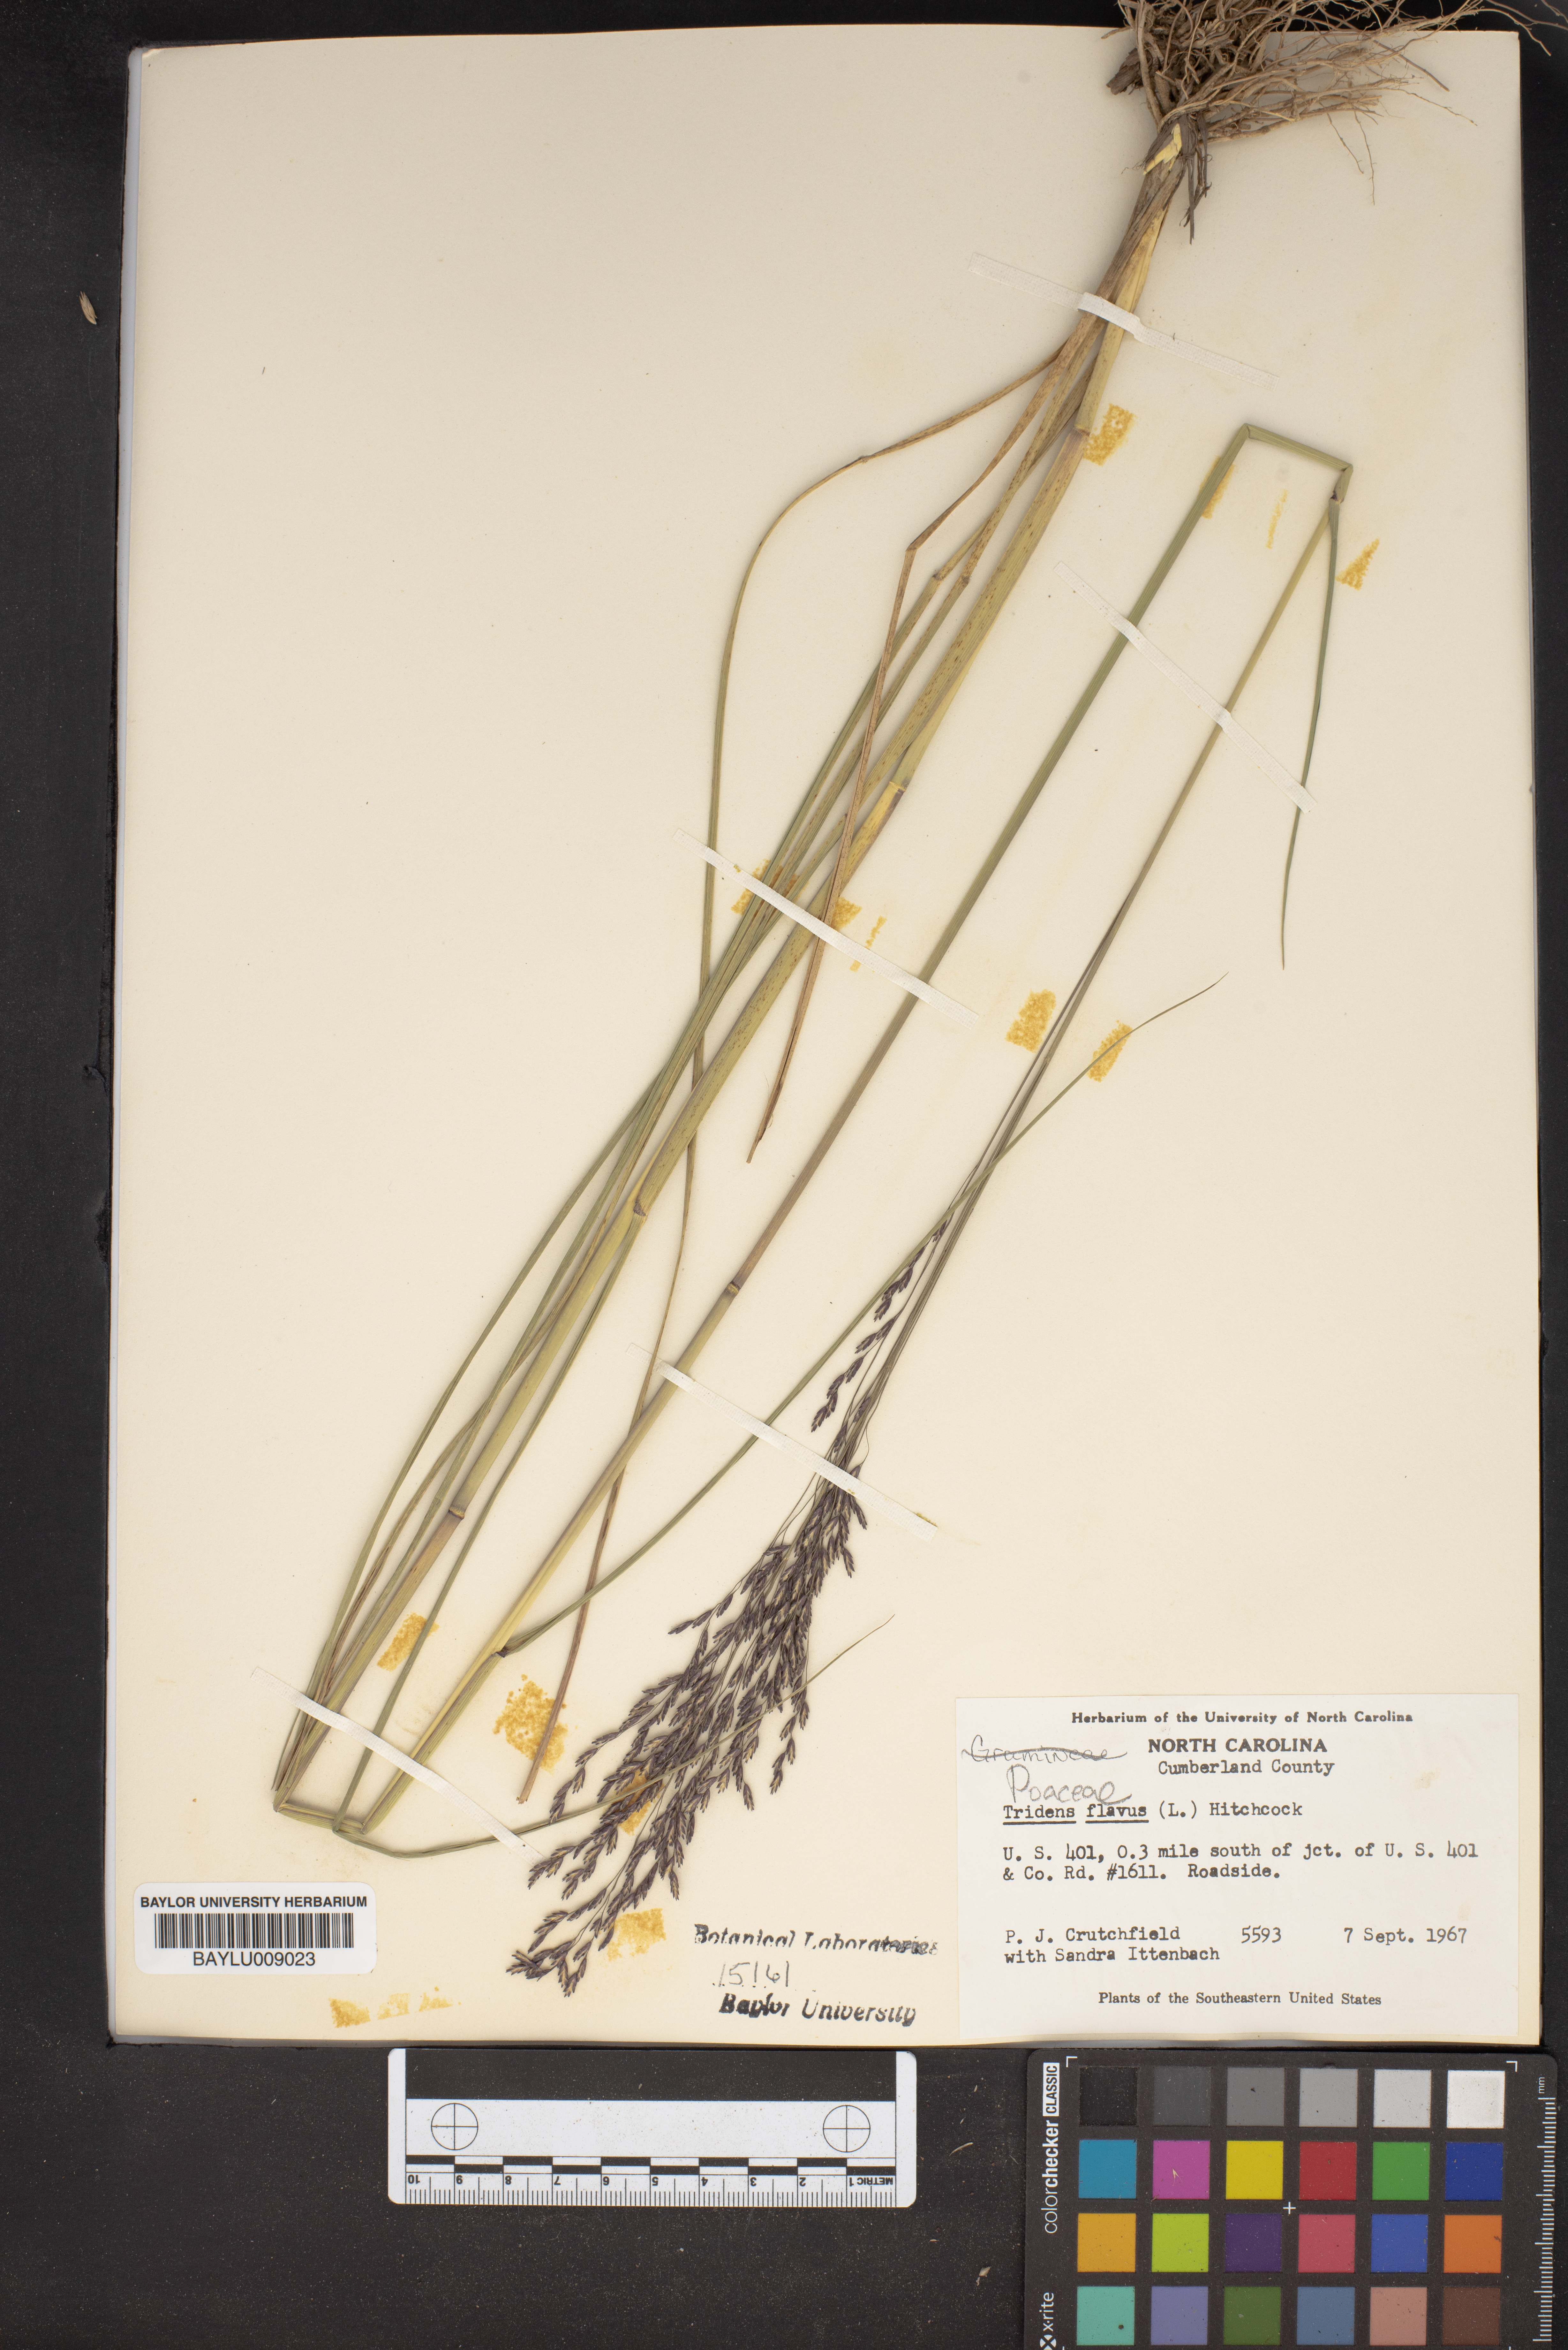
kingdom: Plantae
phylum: Tracheophyta
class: Liliopsida
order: Poales
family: Poaceae
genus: Tridens
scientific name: Tridens flavus
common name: Purpletop
